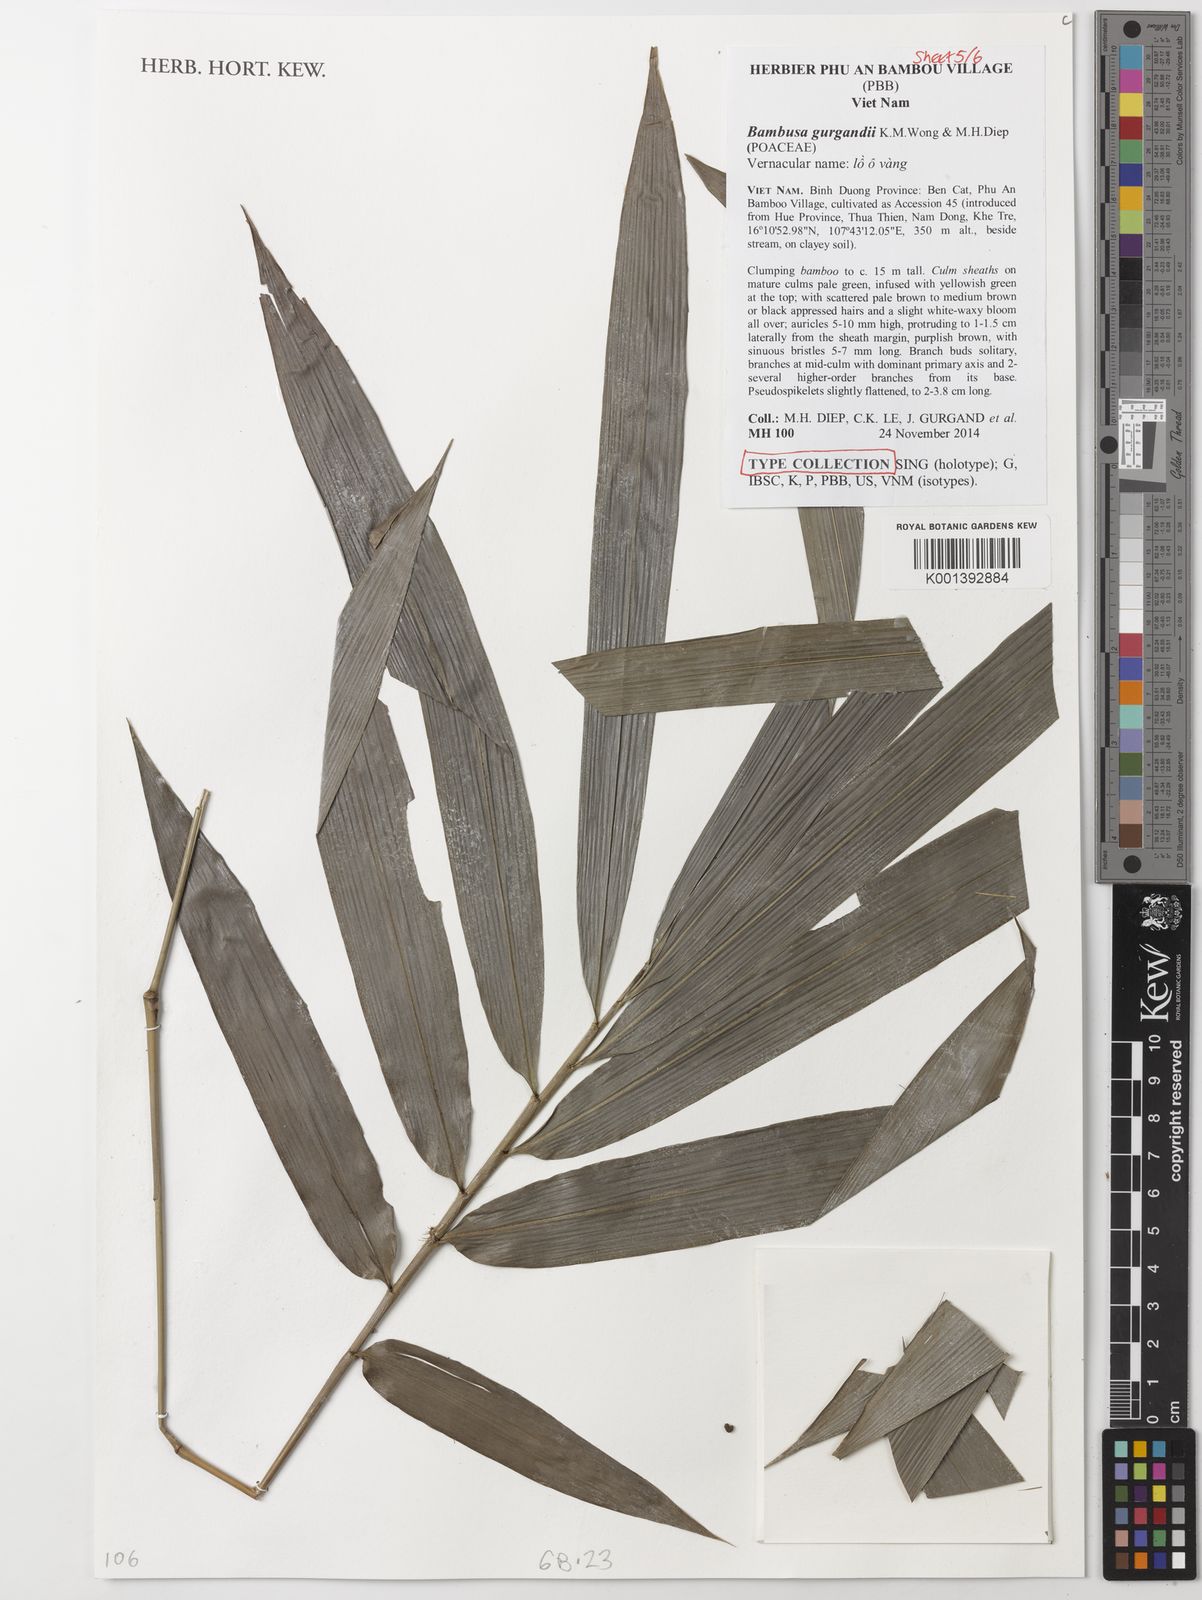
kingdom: Plantae
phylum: Tracheophyta
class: Liliopsida
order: Poales
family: Poaceae
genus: Bambusa
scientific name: Bambusa gurgandii
